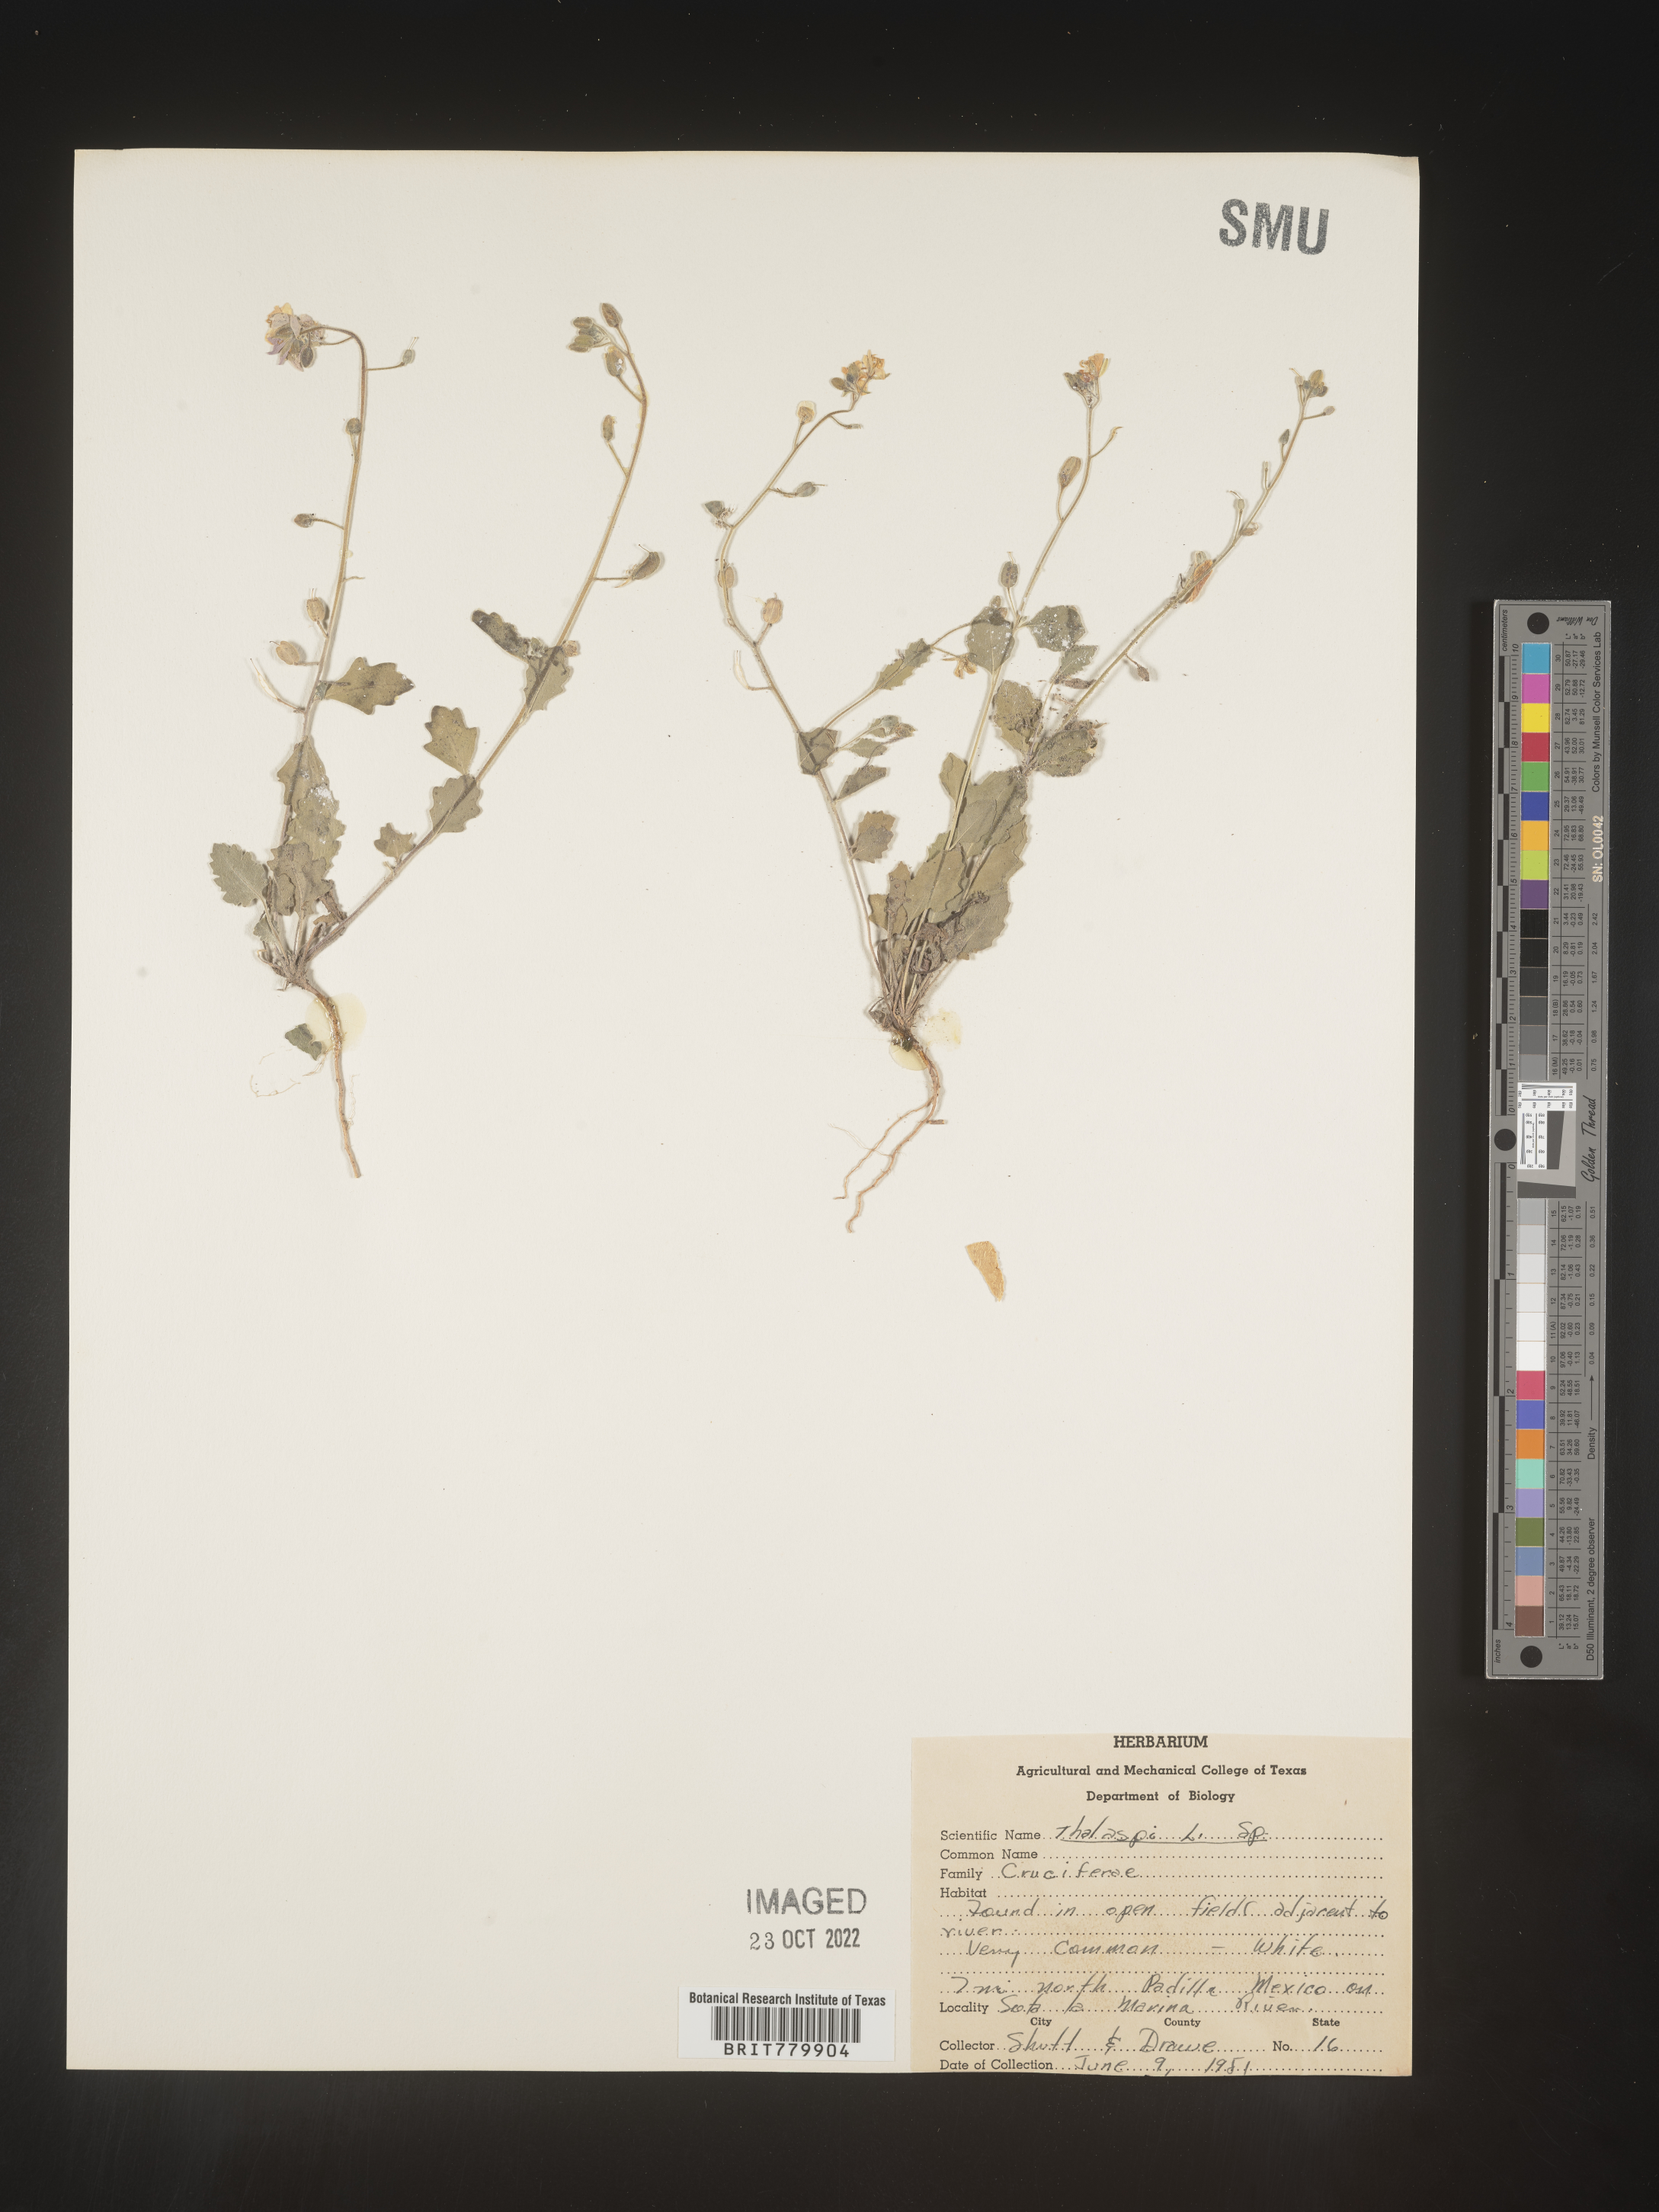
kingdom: Plantae
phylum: Tracheophyta
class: Magnoliopsida
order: Brassicales
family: Brassicaceae
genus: Thlaspi
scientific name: Thlaspi
